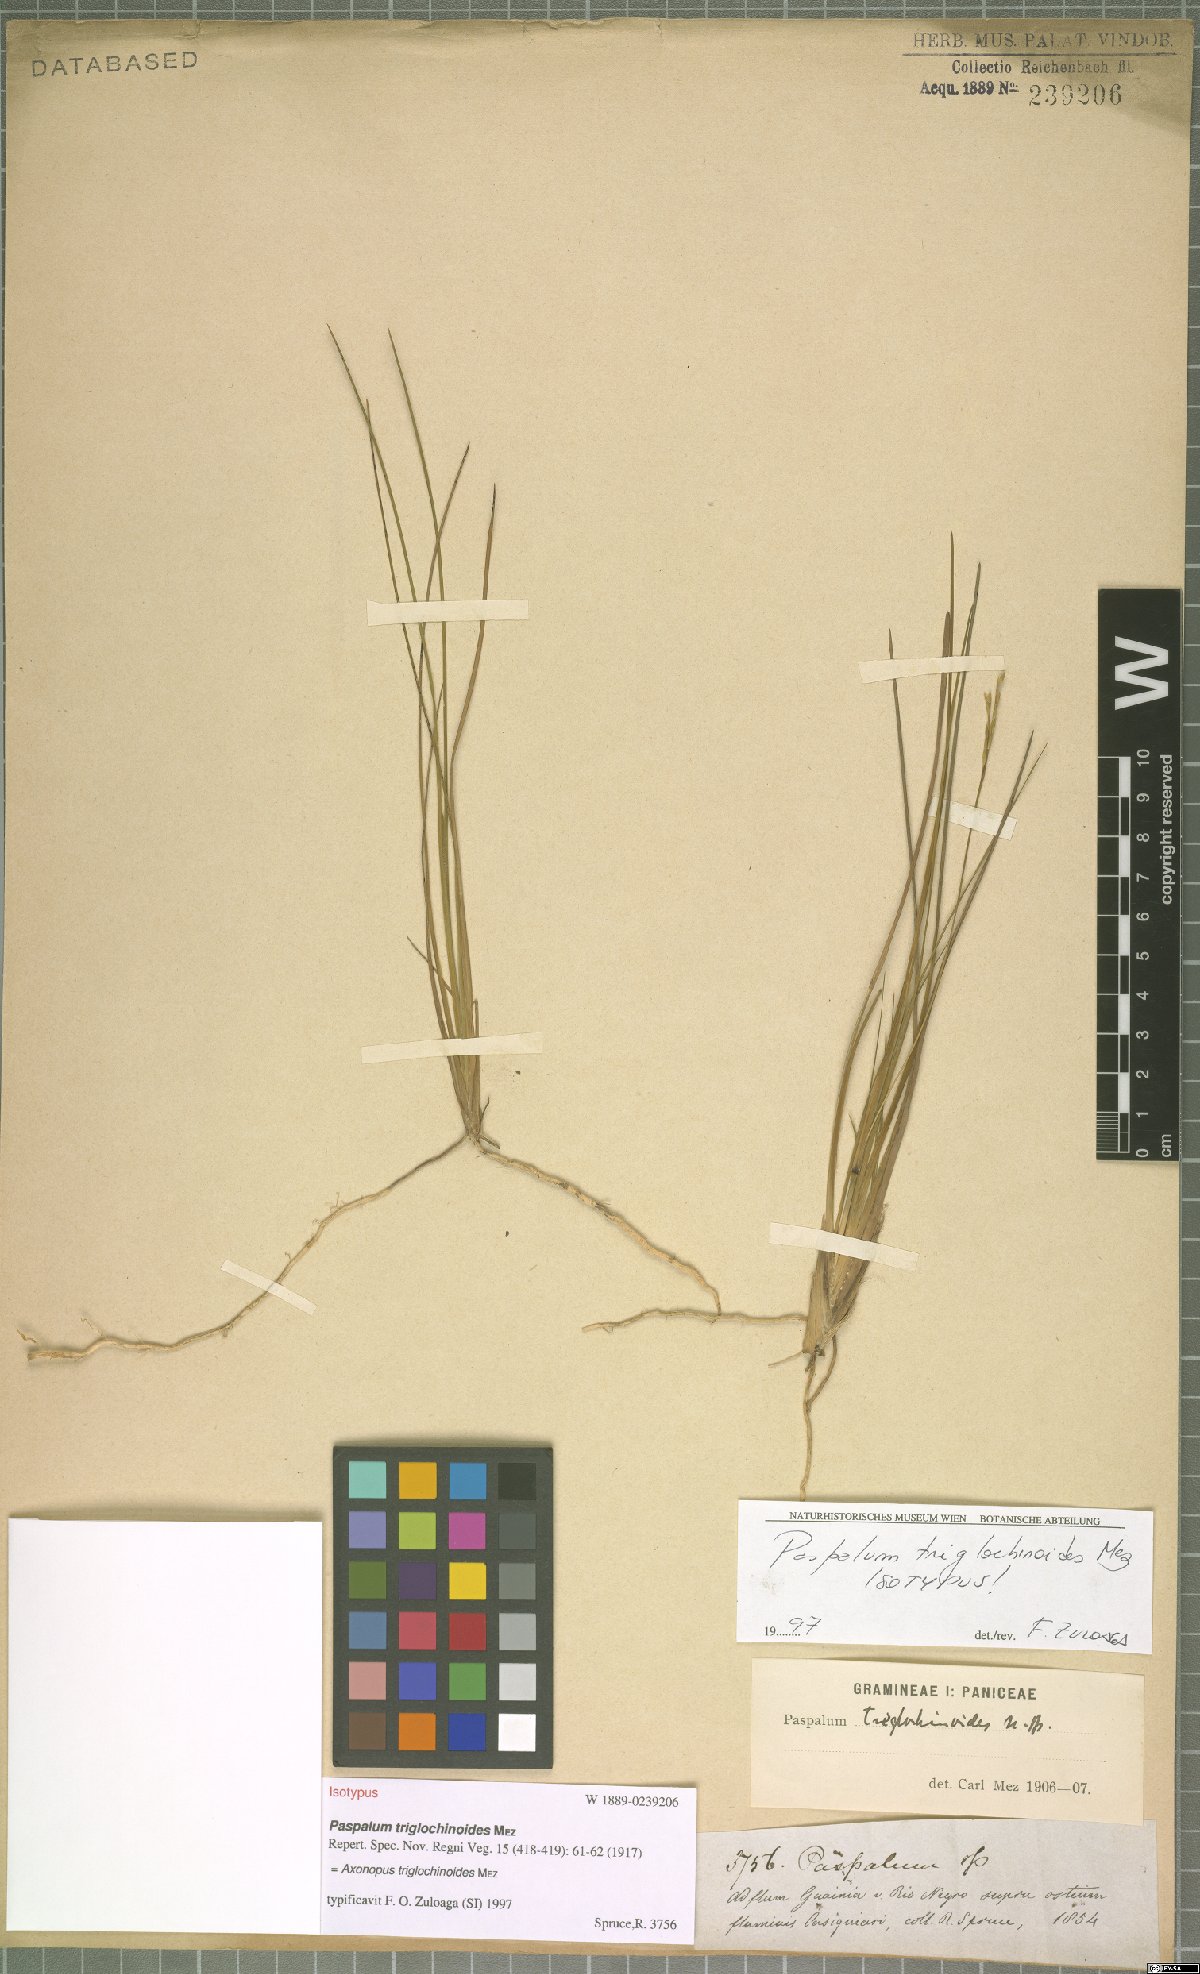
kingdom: Plantae
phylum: Tracheophyta
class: Liliopsida
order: Poales
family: Poaceae
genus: Axonopus
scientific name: Axonopus triglochinoides
